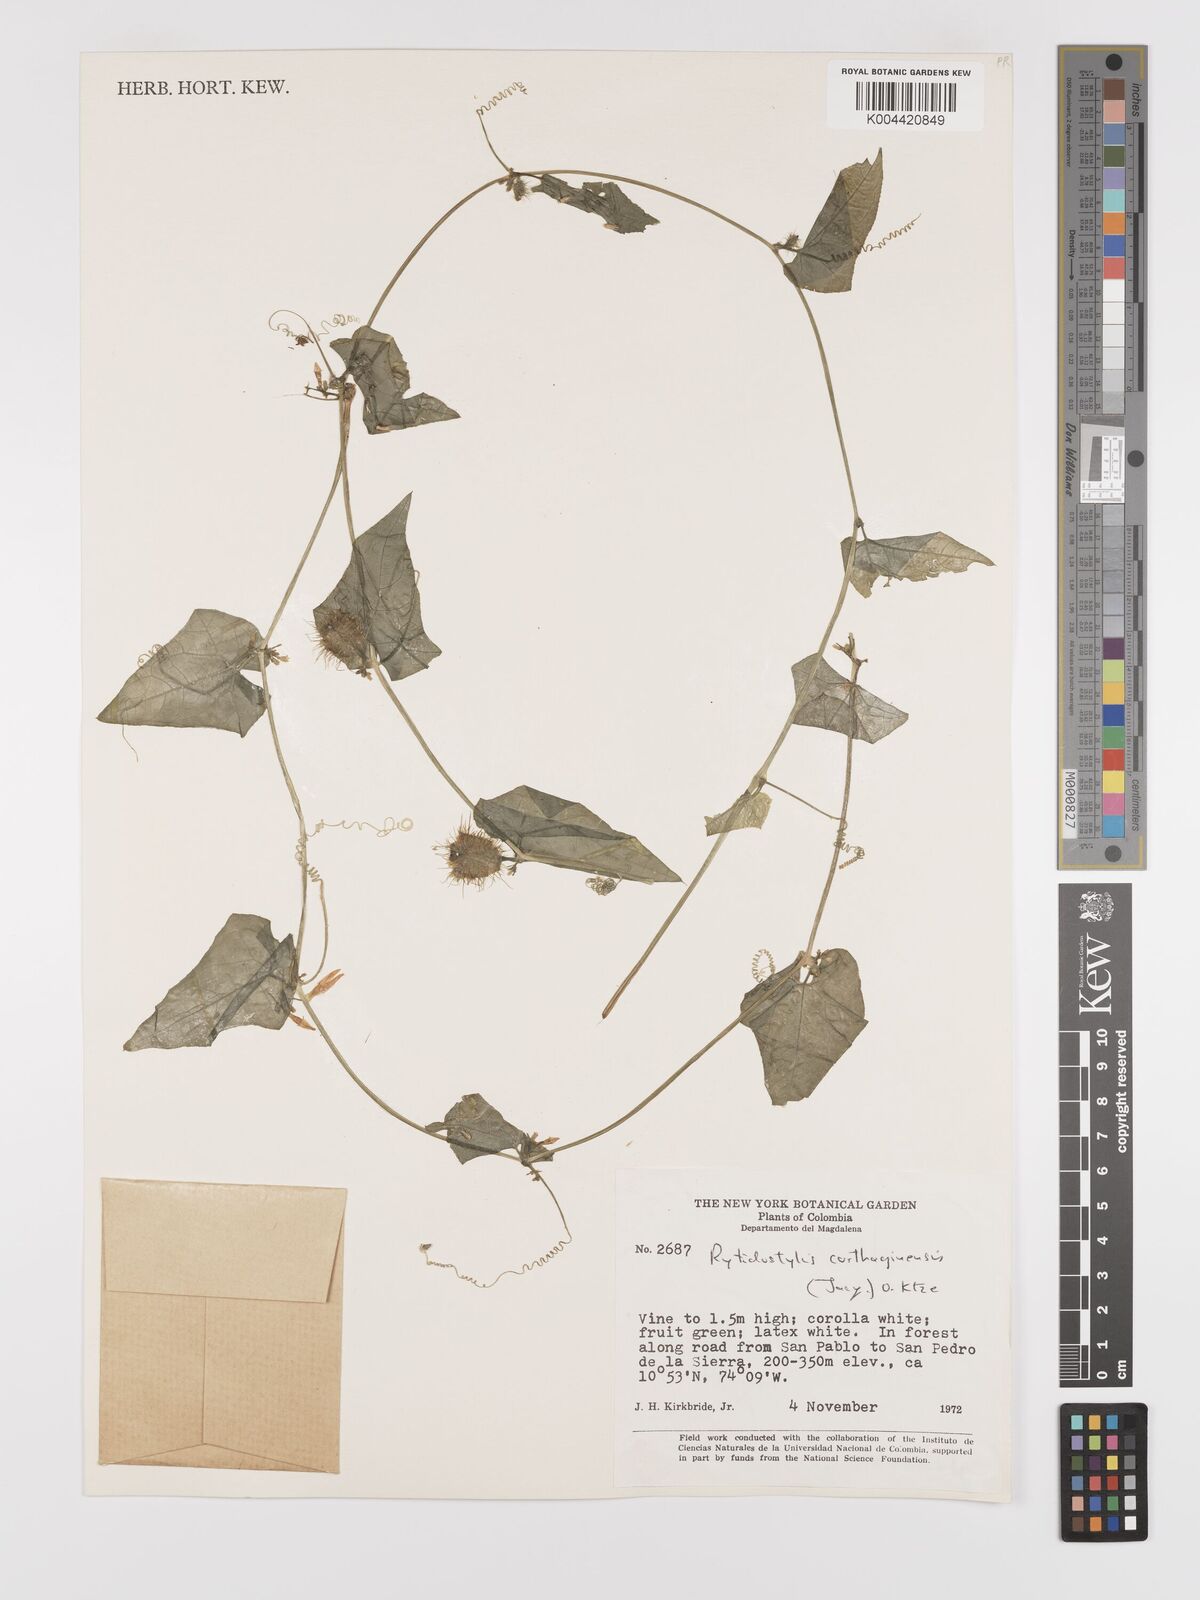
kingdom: Plantae
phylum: Tracheophyta
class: Magnoliopsida
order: Cucurbitales
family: Cucurbitaceae
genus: Cyclanthera
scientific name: Cyclanthera carthagenensis
